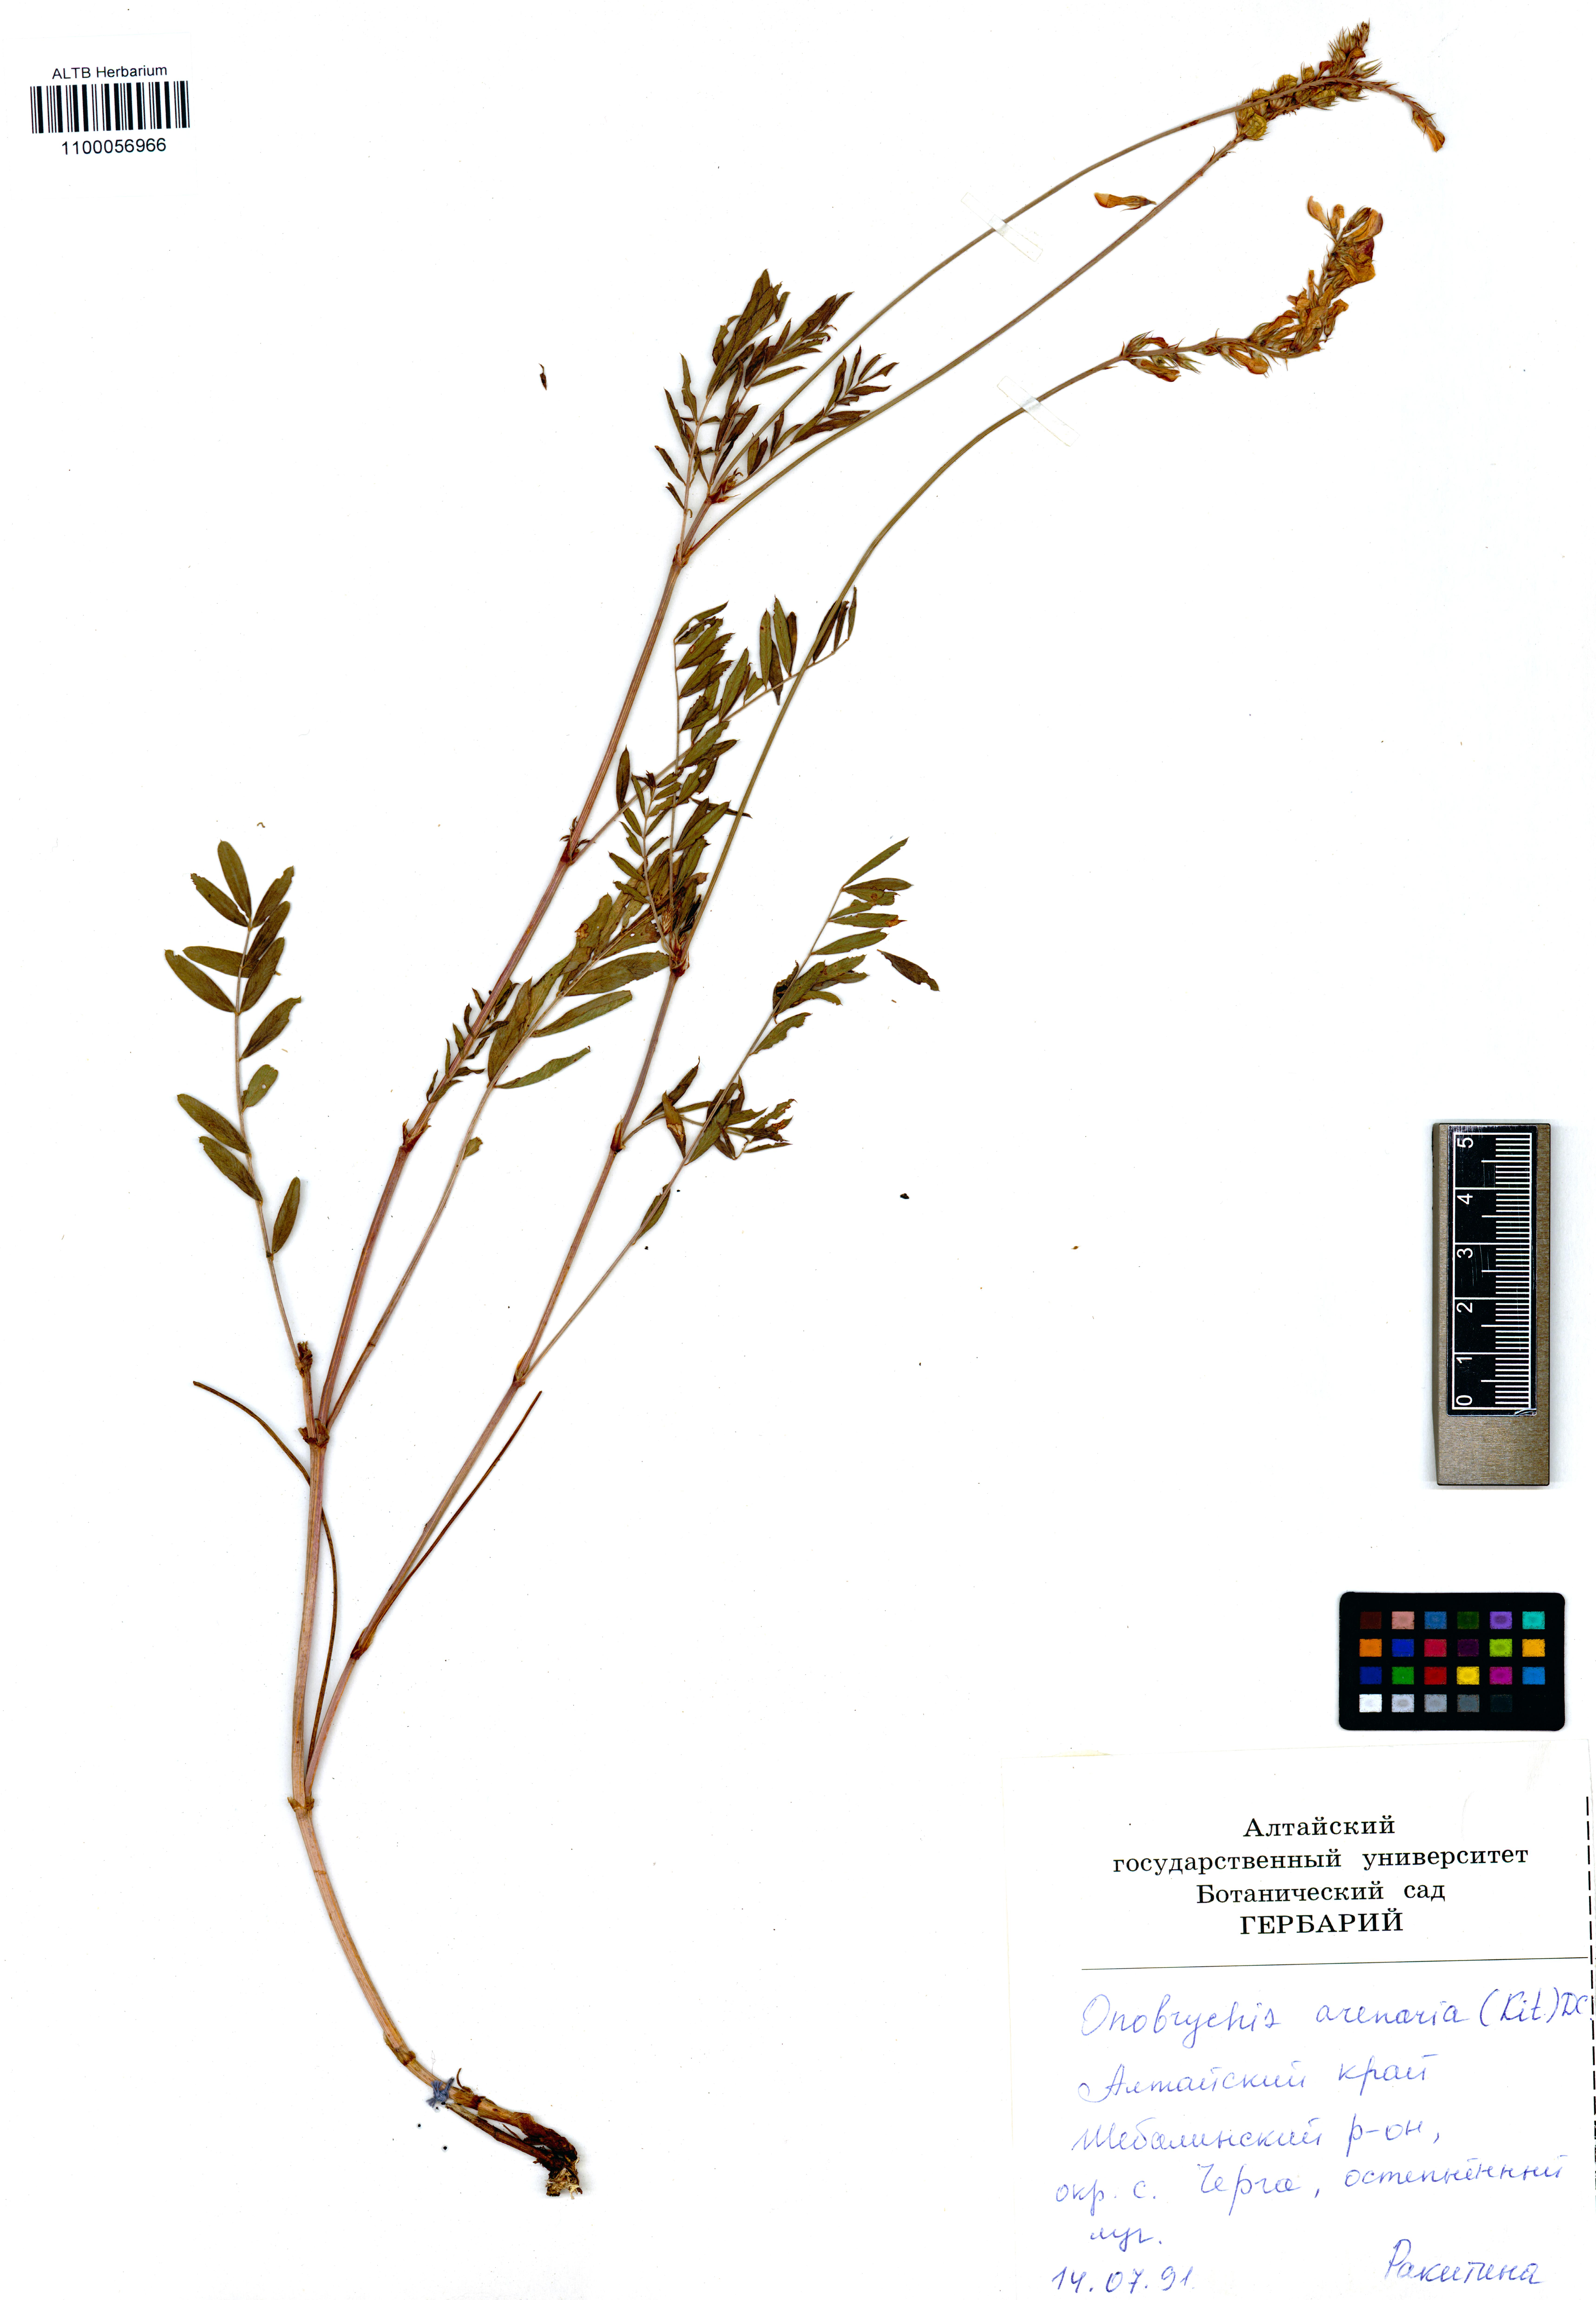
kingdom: Plantae
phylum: Tracheophyta
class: Magnoliopsida
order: Fabales
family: Fabaceae
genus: Onobrychis
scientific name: Onobrychis arenaria
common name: Sand esparcet
